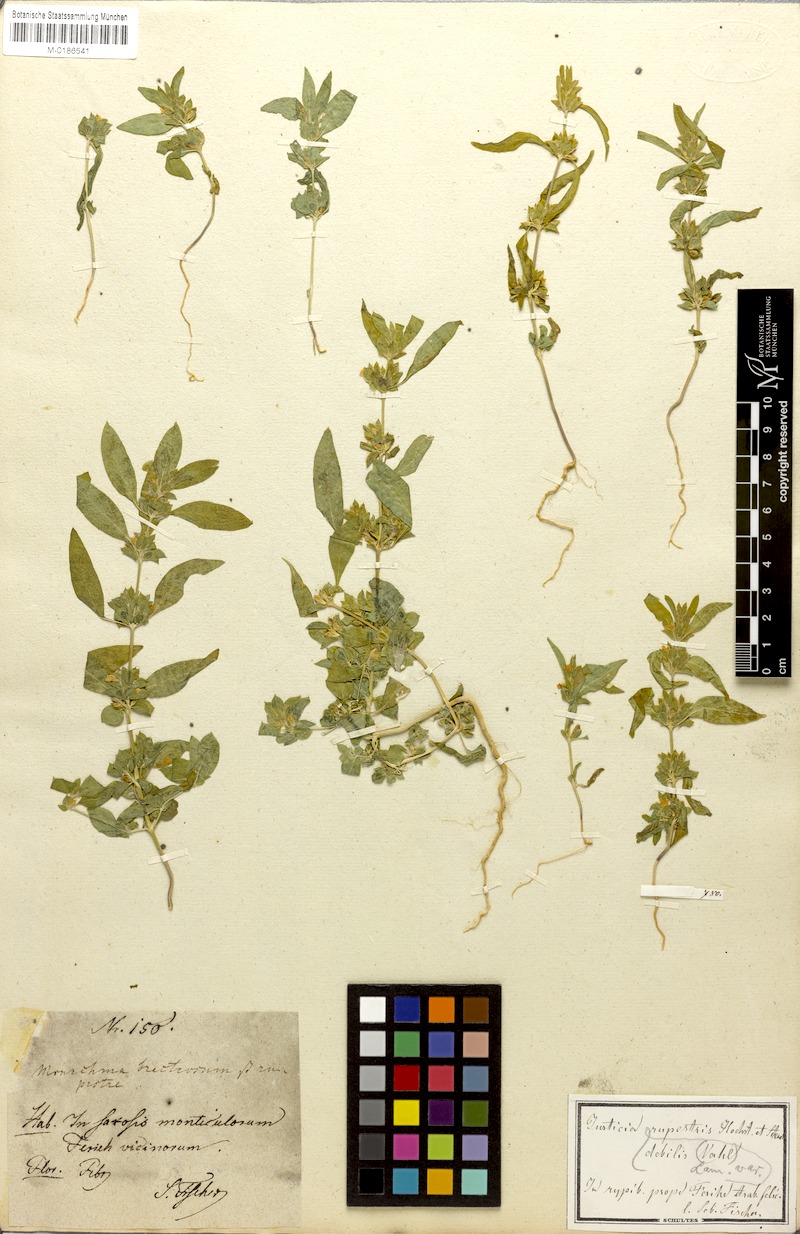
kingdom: Plantae
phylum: Tracheophyta
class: Magnoliopsida
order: Lamiales
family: Acanthaceae
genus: Monechma
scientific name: Monechma debile
